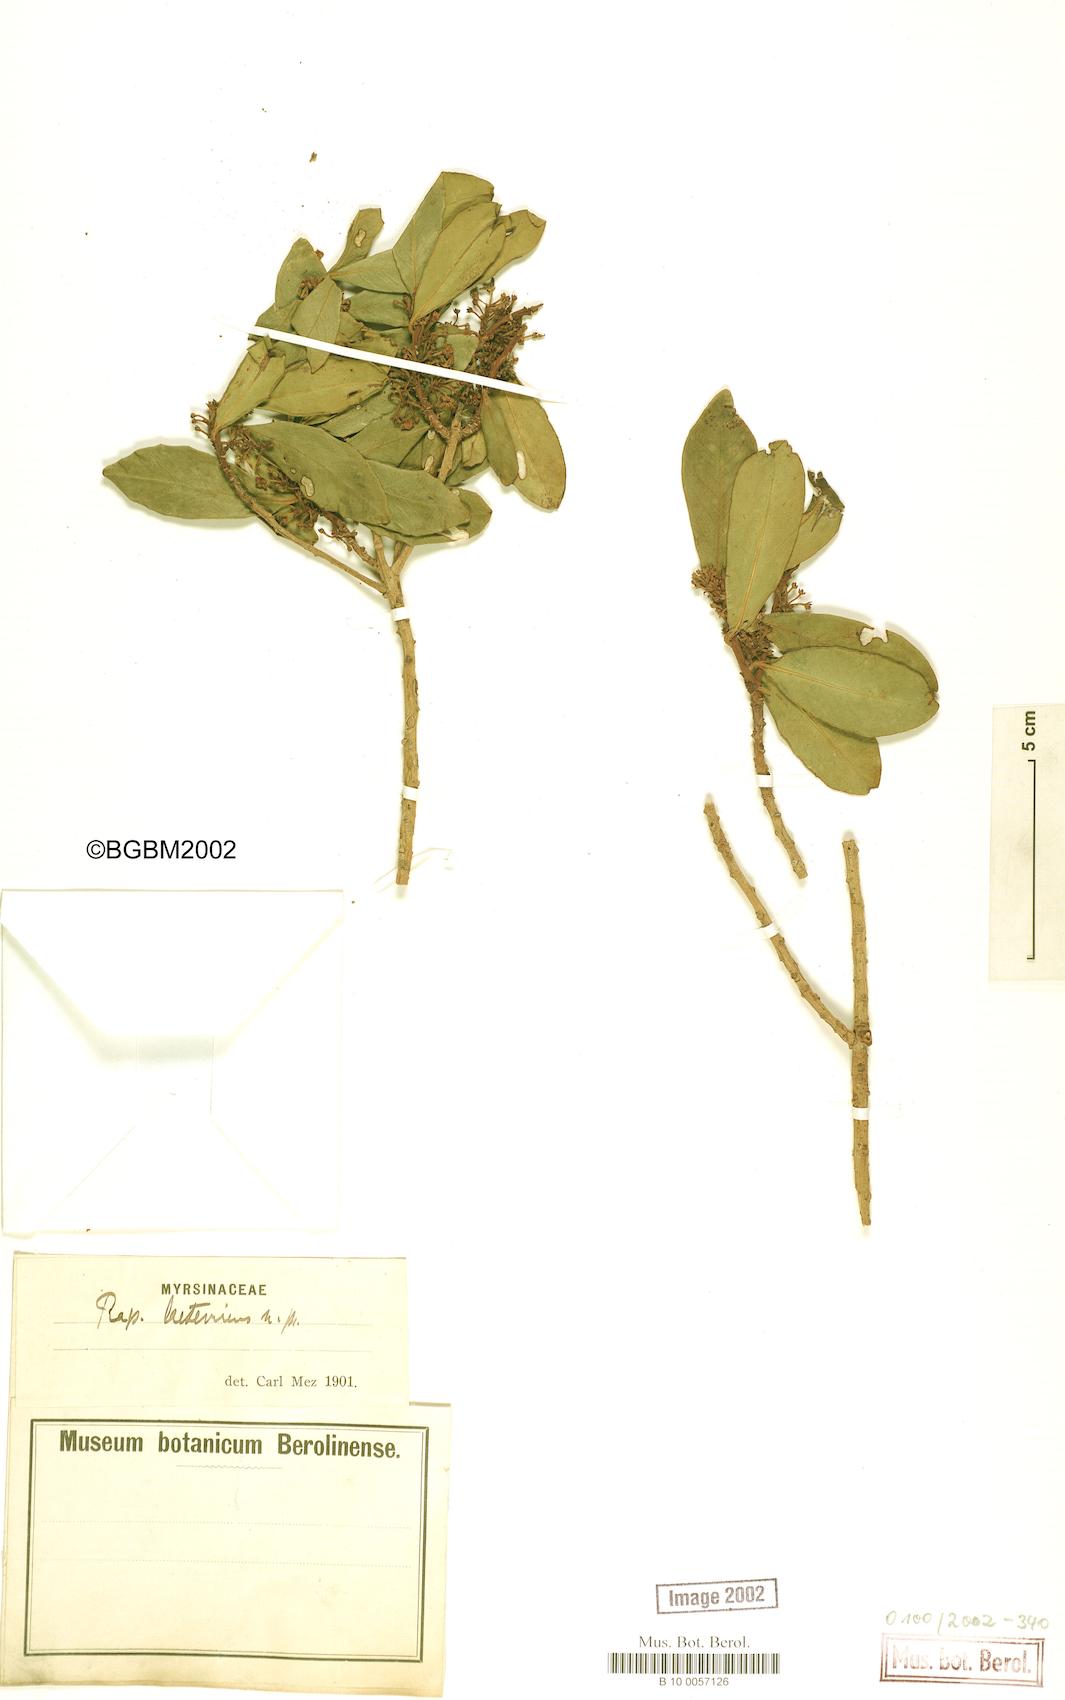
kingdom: Plantae
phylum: Tracheophyta
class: Magnoliopsida
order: Ericales
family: Primulaceae
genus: Myrsine
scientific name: Myrsine laetevirens
